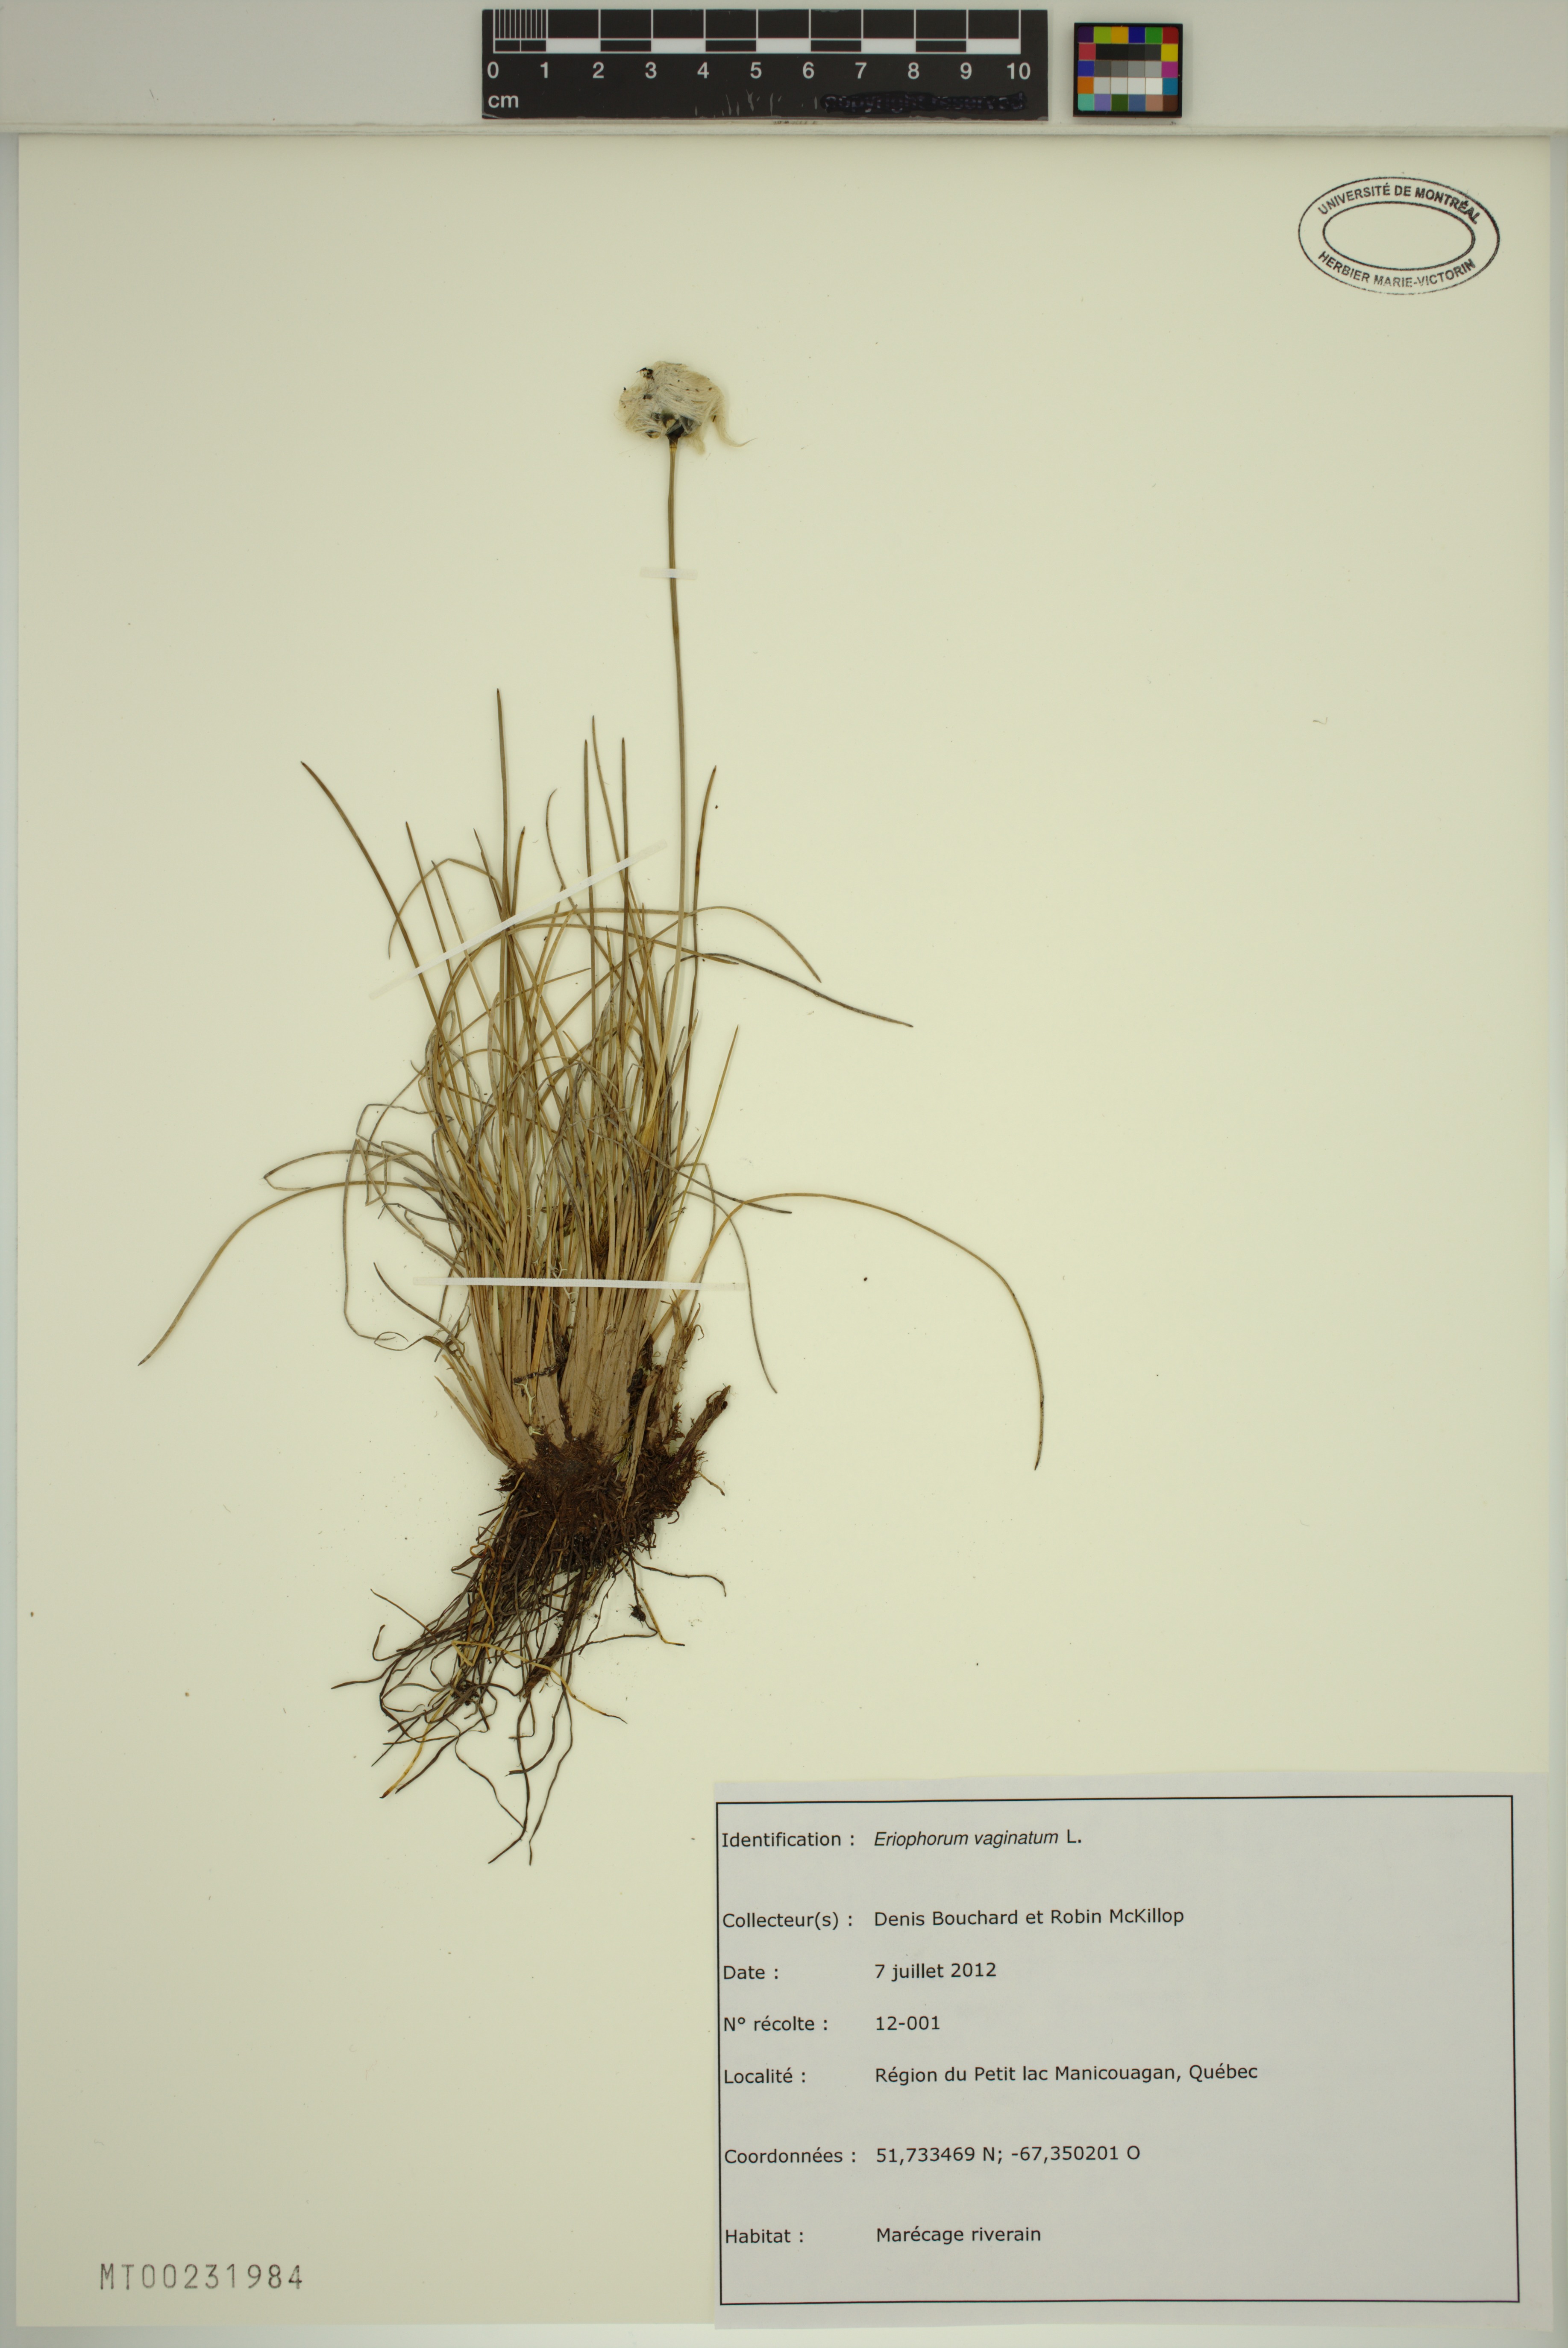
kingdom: Plantae
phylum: Tracheophyta
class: Liliopsida
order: Poales
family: Cyperaceae
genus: Eriophorum
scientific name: Eriophorum vaginatum
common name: Hare's-tail cottongrass
